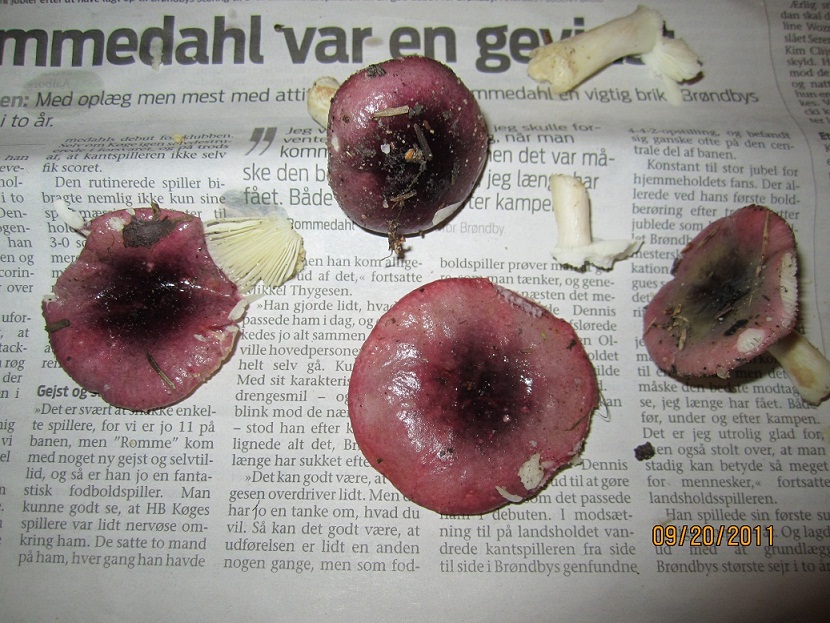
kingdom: Fungi
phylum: Basidiomycota
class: Agaricomycetes
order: Russulales
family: Russulaceae
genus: Russula
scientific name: Russula atrorubens
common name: sortrød skørhat
